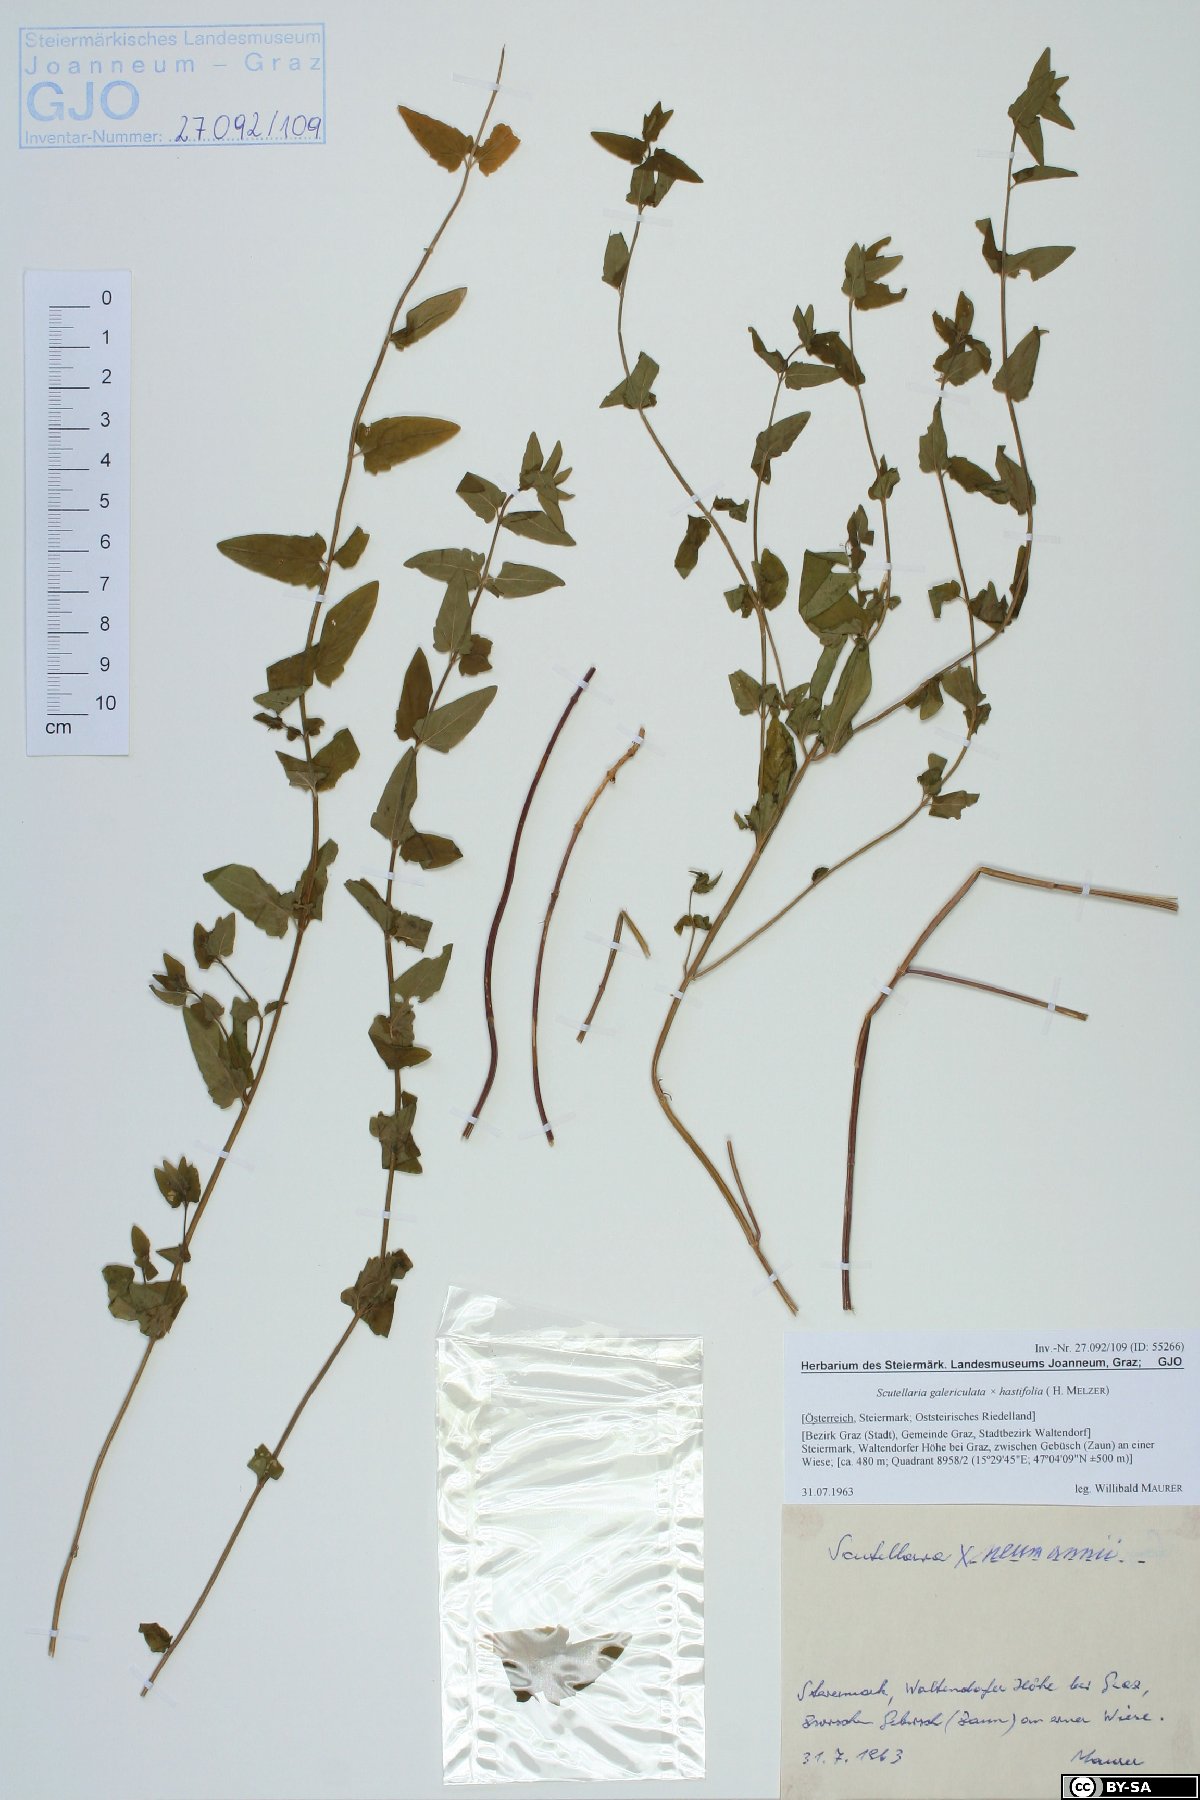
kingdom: Plantae
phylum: Tracheophyta
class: Magnoliopsida
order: Lamiales
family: Lamiaceae
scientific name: Lamiaceae
